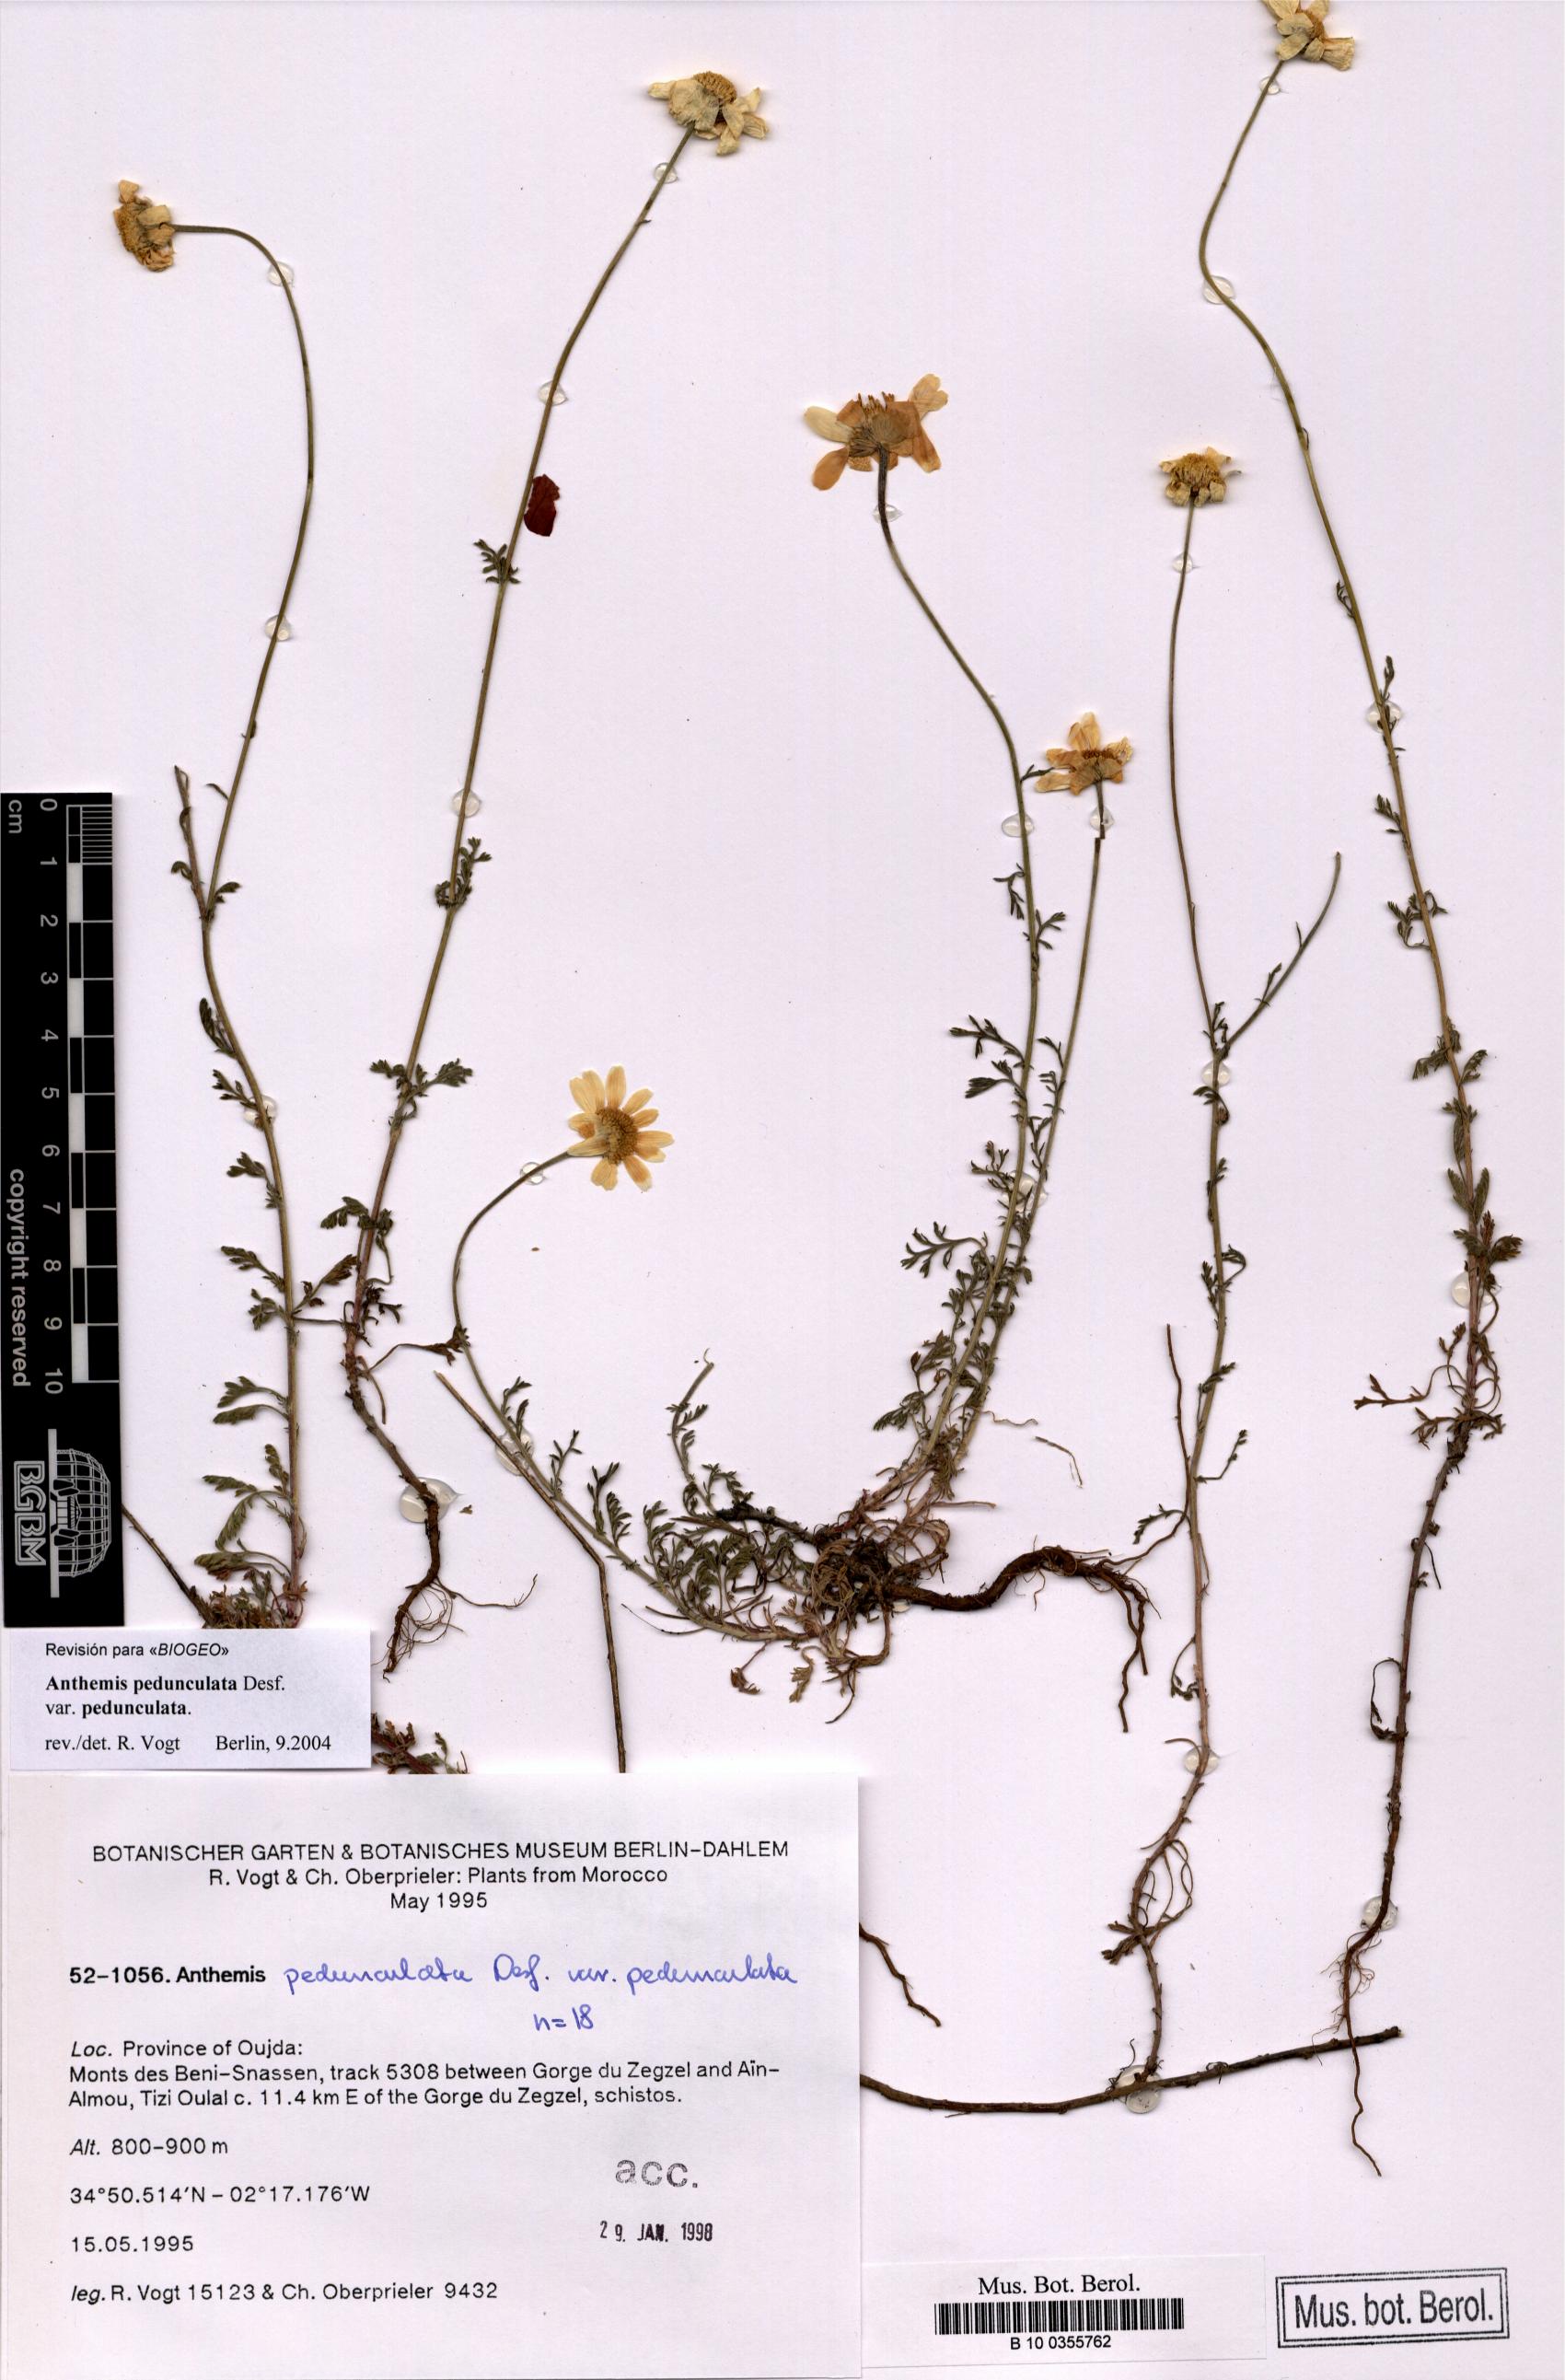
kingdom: Plantae
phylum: Tracheophyta
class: Magnoliopsida
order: Asterales
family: Asteraceae
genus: Anthemis
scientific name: Anthemis pedunculata
